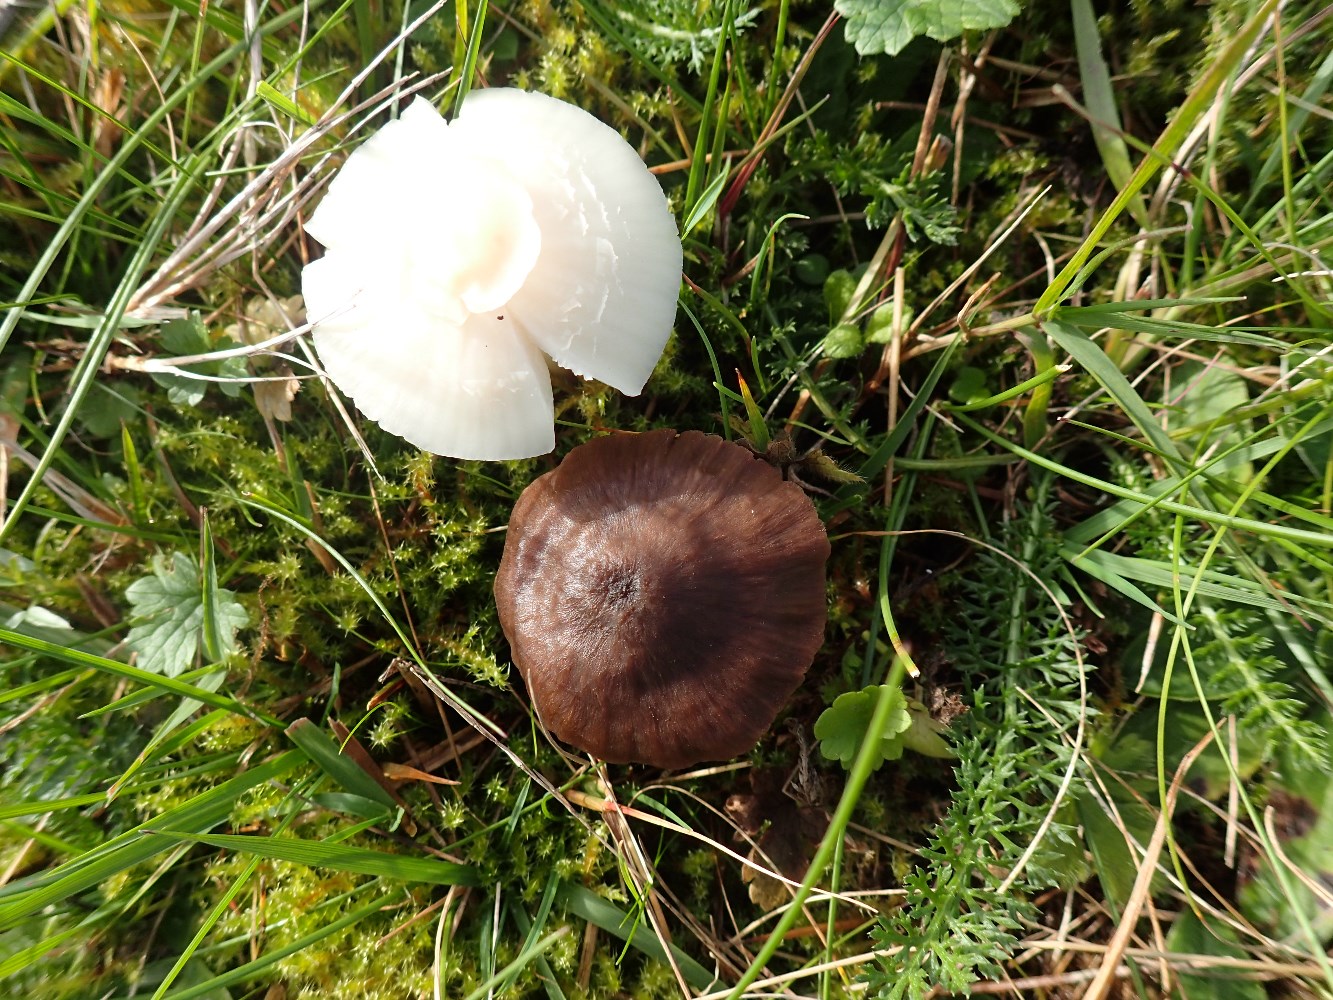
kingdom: Fungi
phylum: Basidiomycota
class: Agaricomycetes
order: Agaricales
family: Hygrophoraceae
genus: Cuphophyllus
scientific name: Cuphophyllus virgineus
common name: snehvid vokshat
